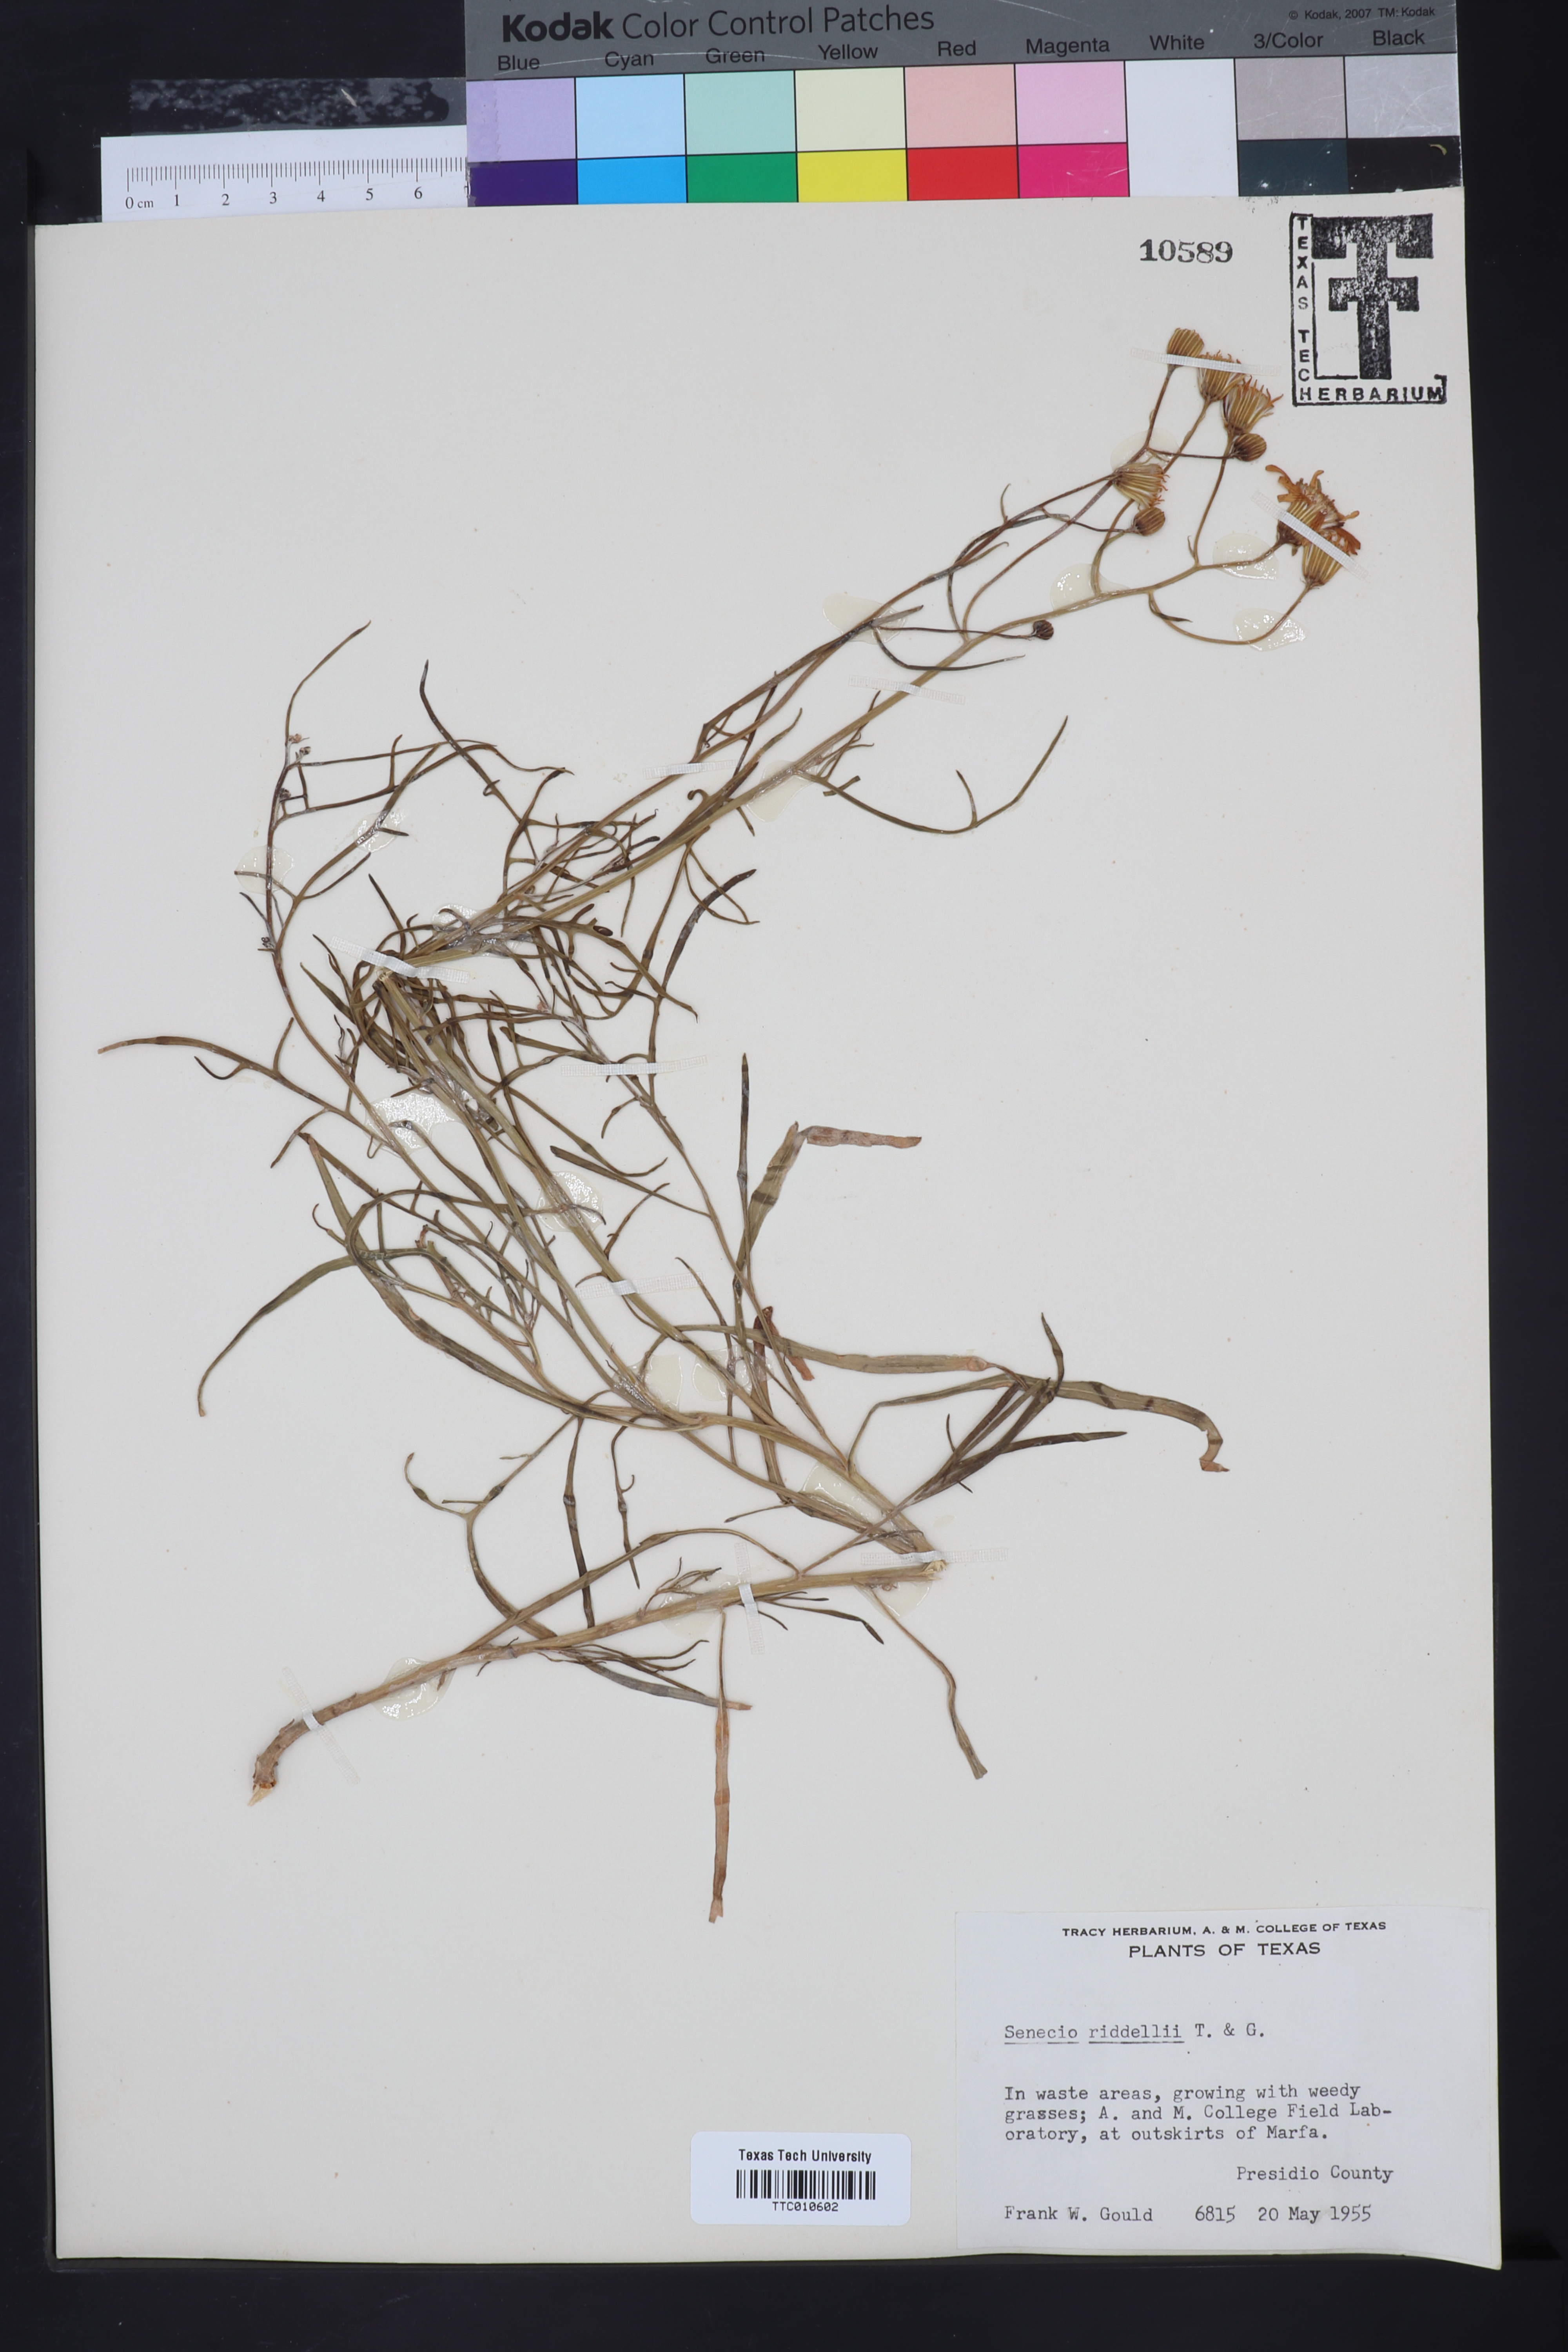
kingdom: Plantae
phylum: Tracheophyta
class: Magnoliopsida
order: Asterales
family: Asteraceae
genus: Senecio
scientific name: Senecio riddellii
